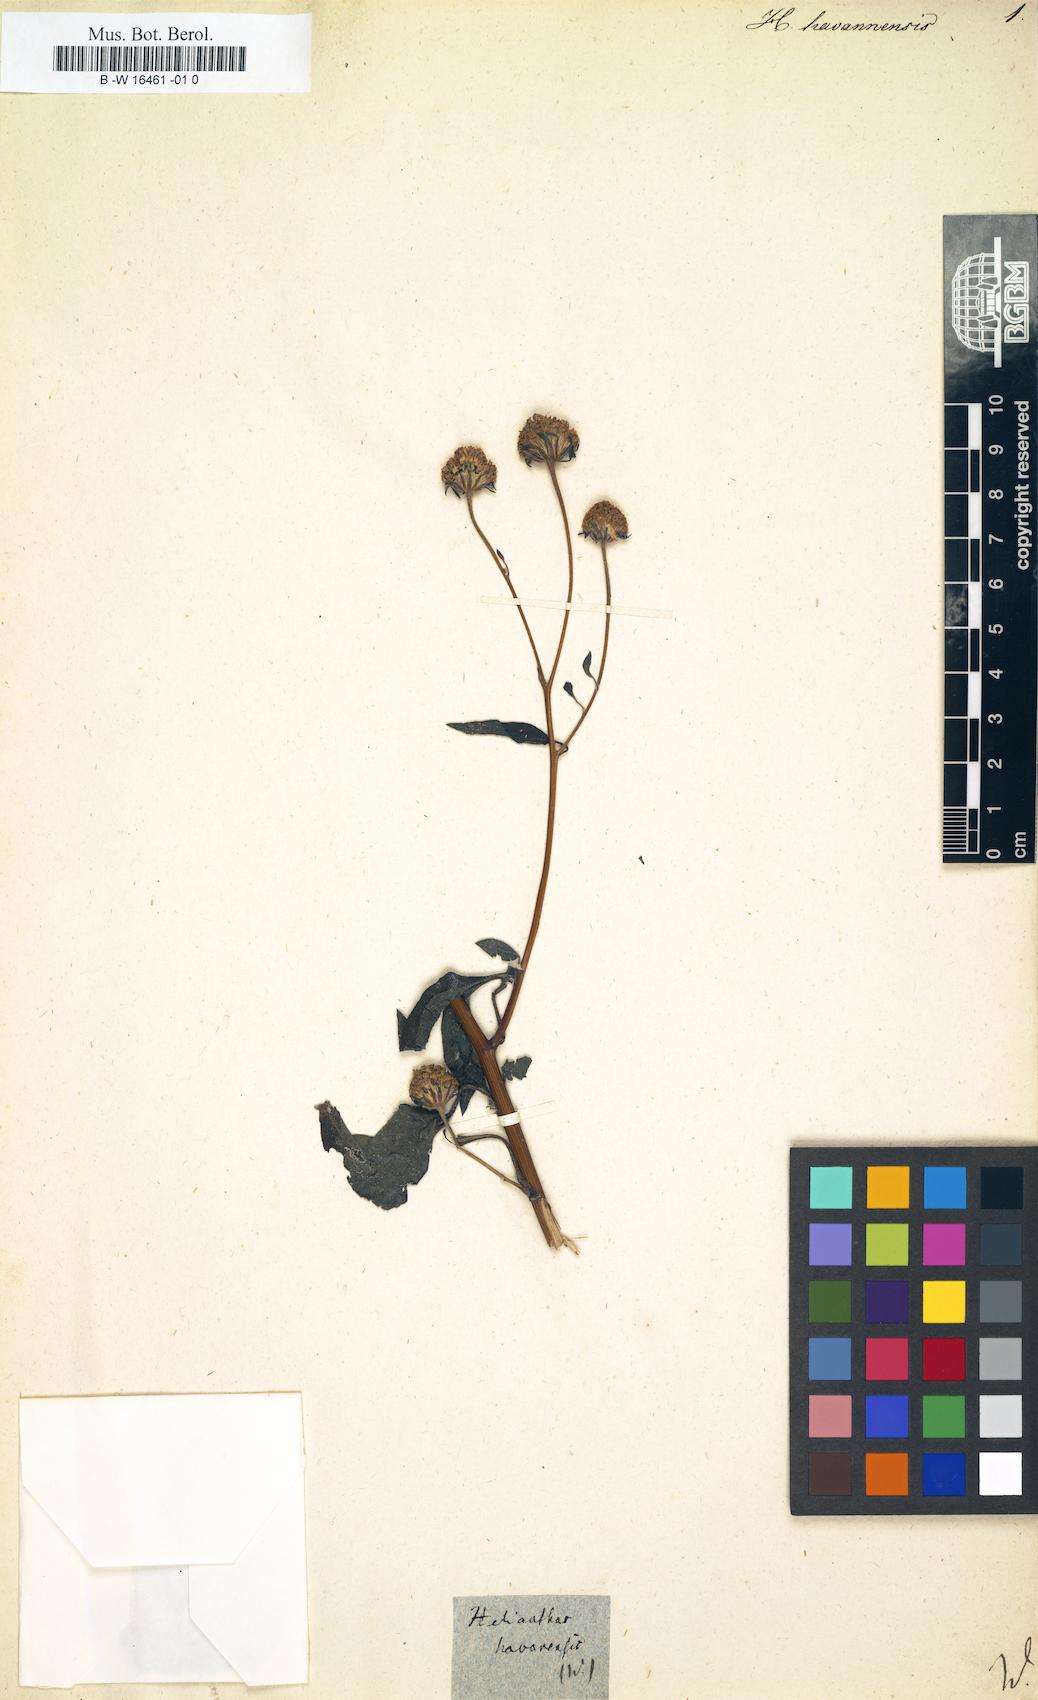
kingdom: Plantae
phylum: Tracheophyta
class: Magnoliopsida
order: Asterales
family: Asteraceae
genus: Helianthus
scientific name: Helianthus
